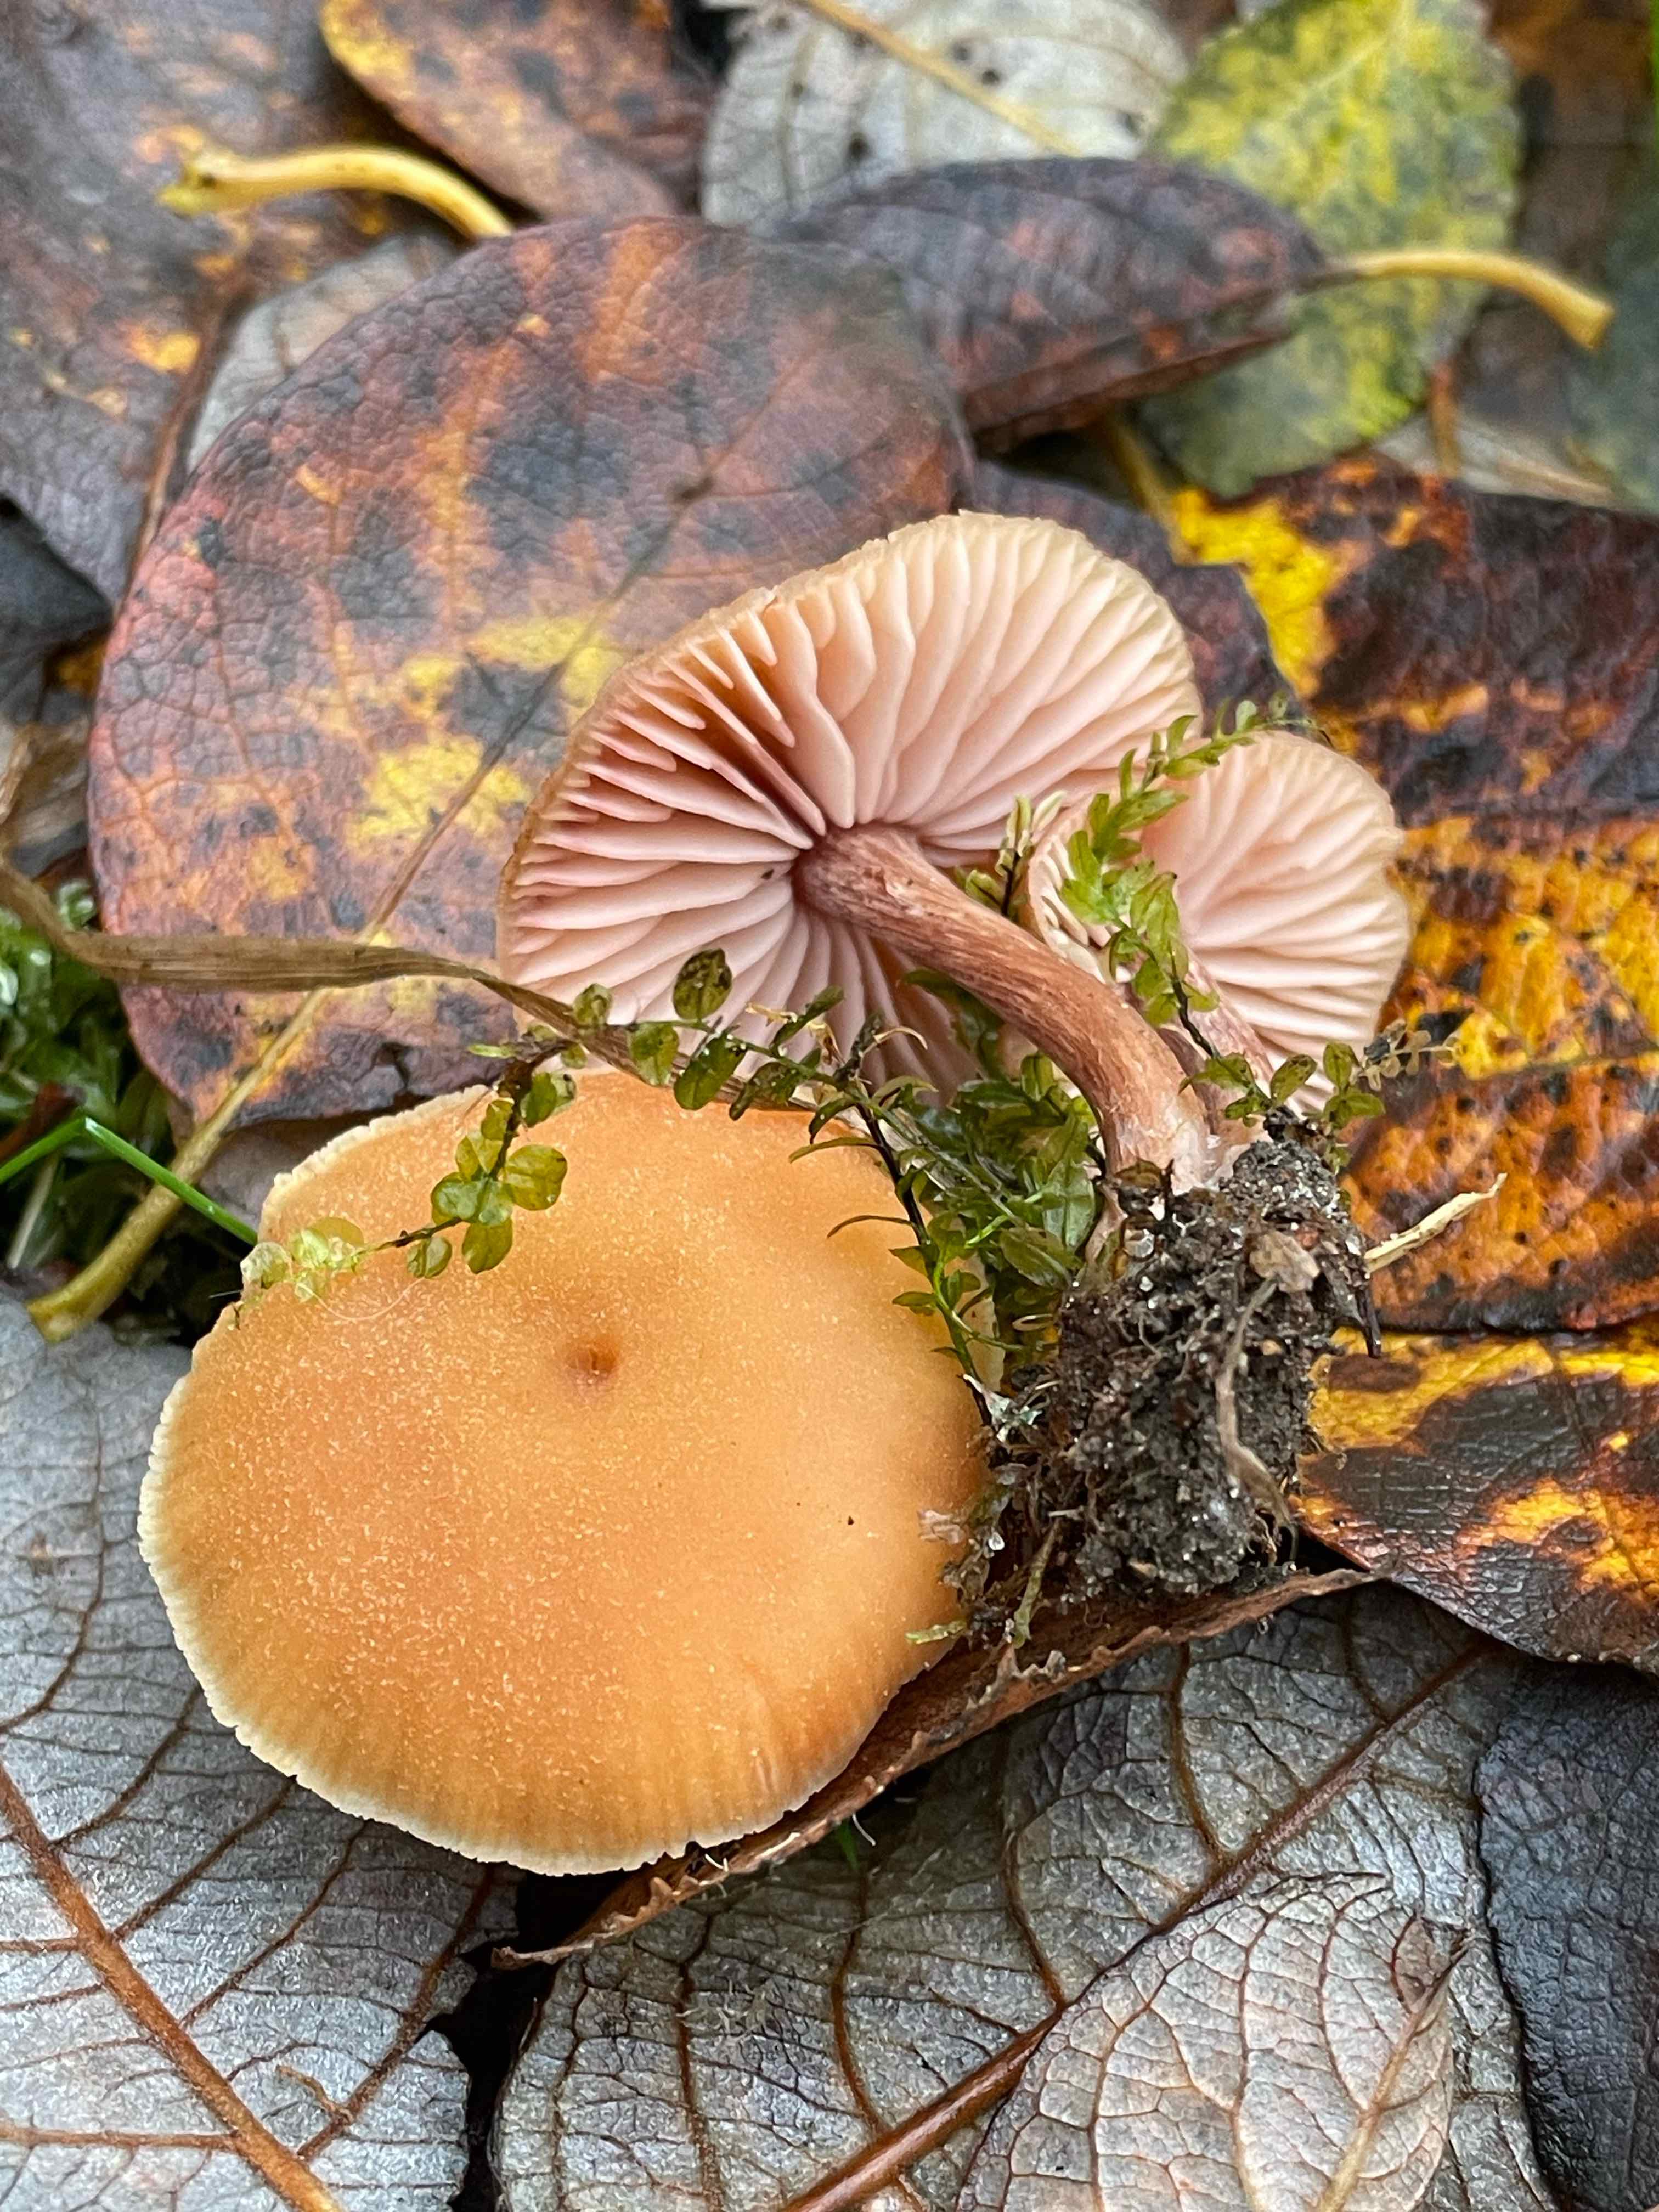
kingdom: Fungi
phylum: Basidiomycota
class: Agaricomycetes
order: Agaricales
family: Hydnangiaceae
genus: Laccaria
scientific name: Laccaria laccata
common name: rød ametysthat
